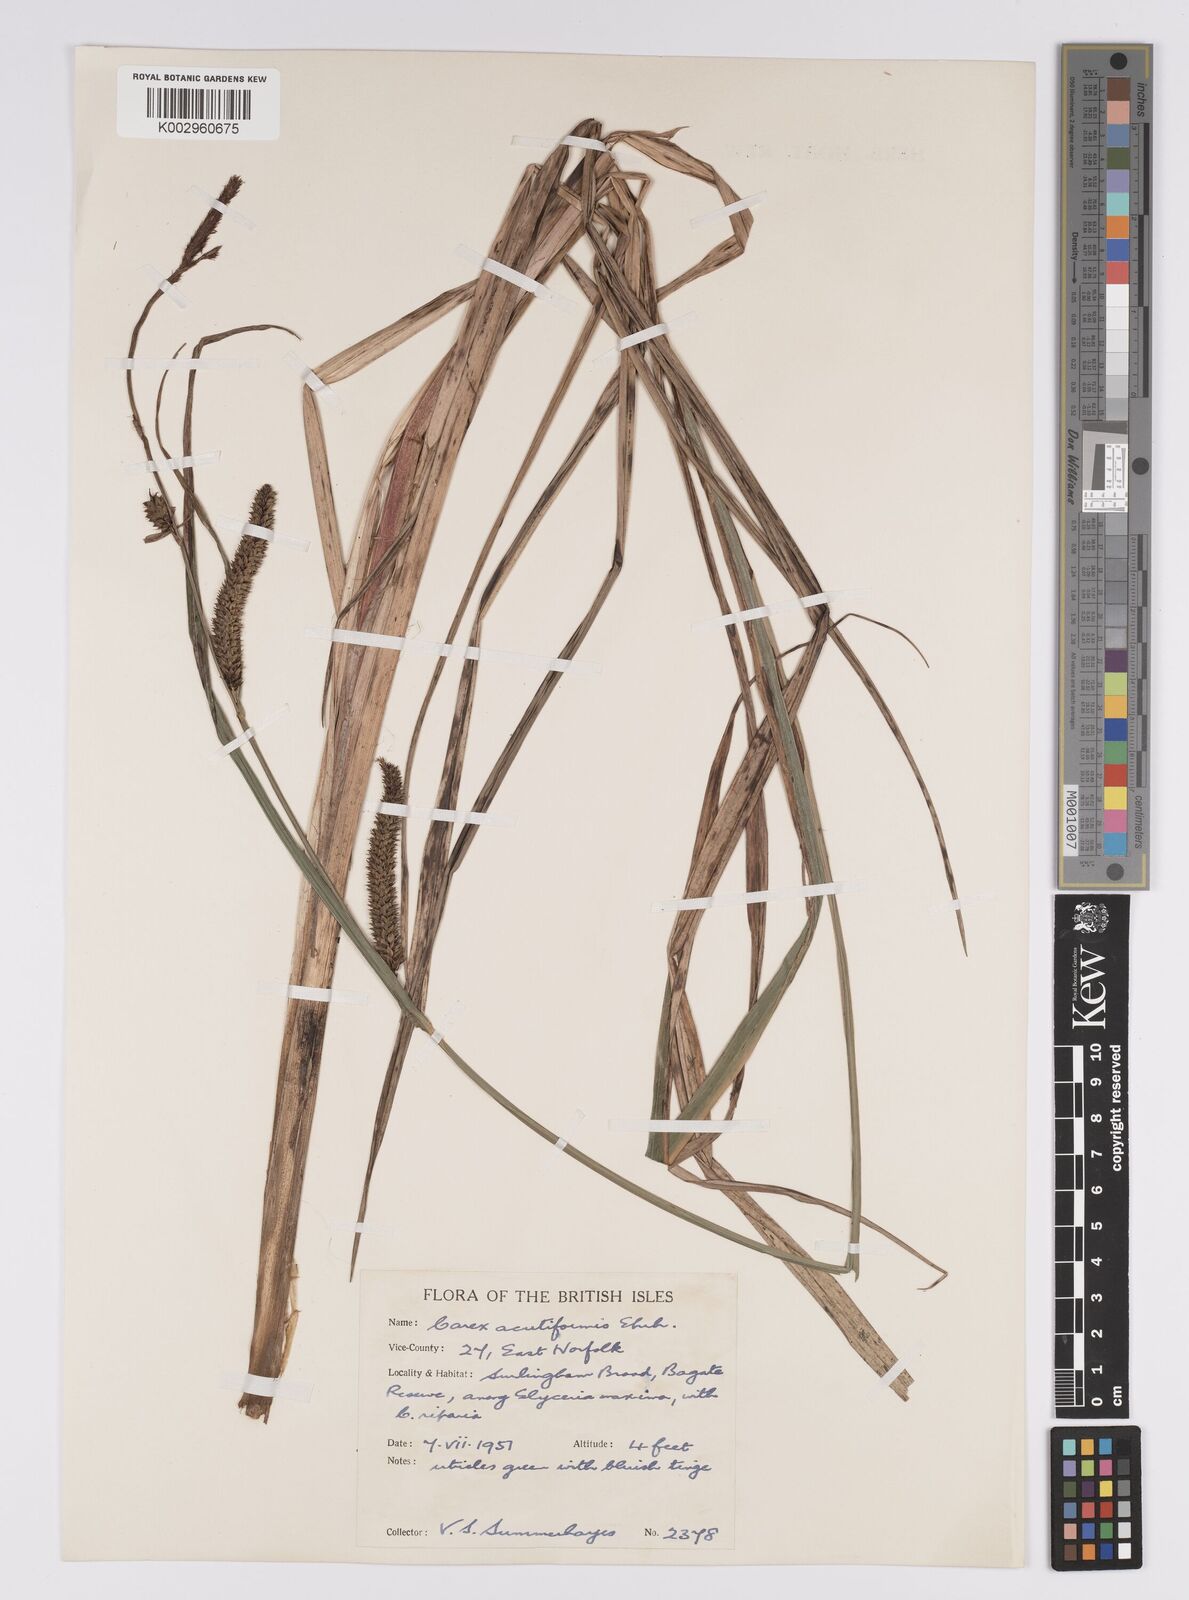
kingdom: Plantae
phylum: Tracheophyta
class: Liliopsida
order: Poales
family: Cyperaceae
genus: Carex
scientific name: Carex acutiformis
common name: Lesser pond-sedge
